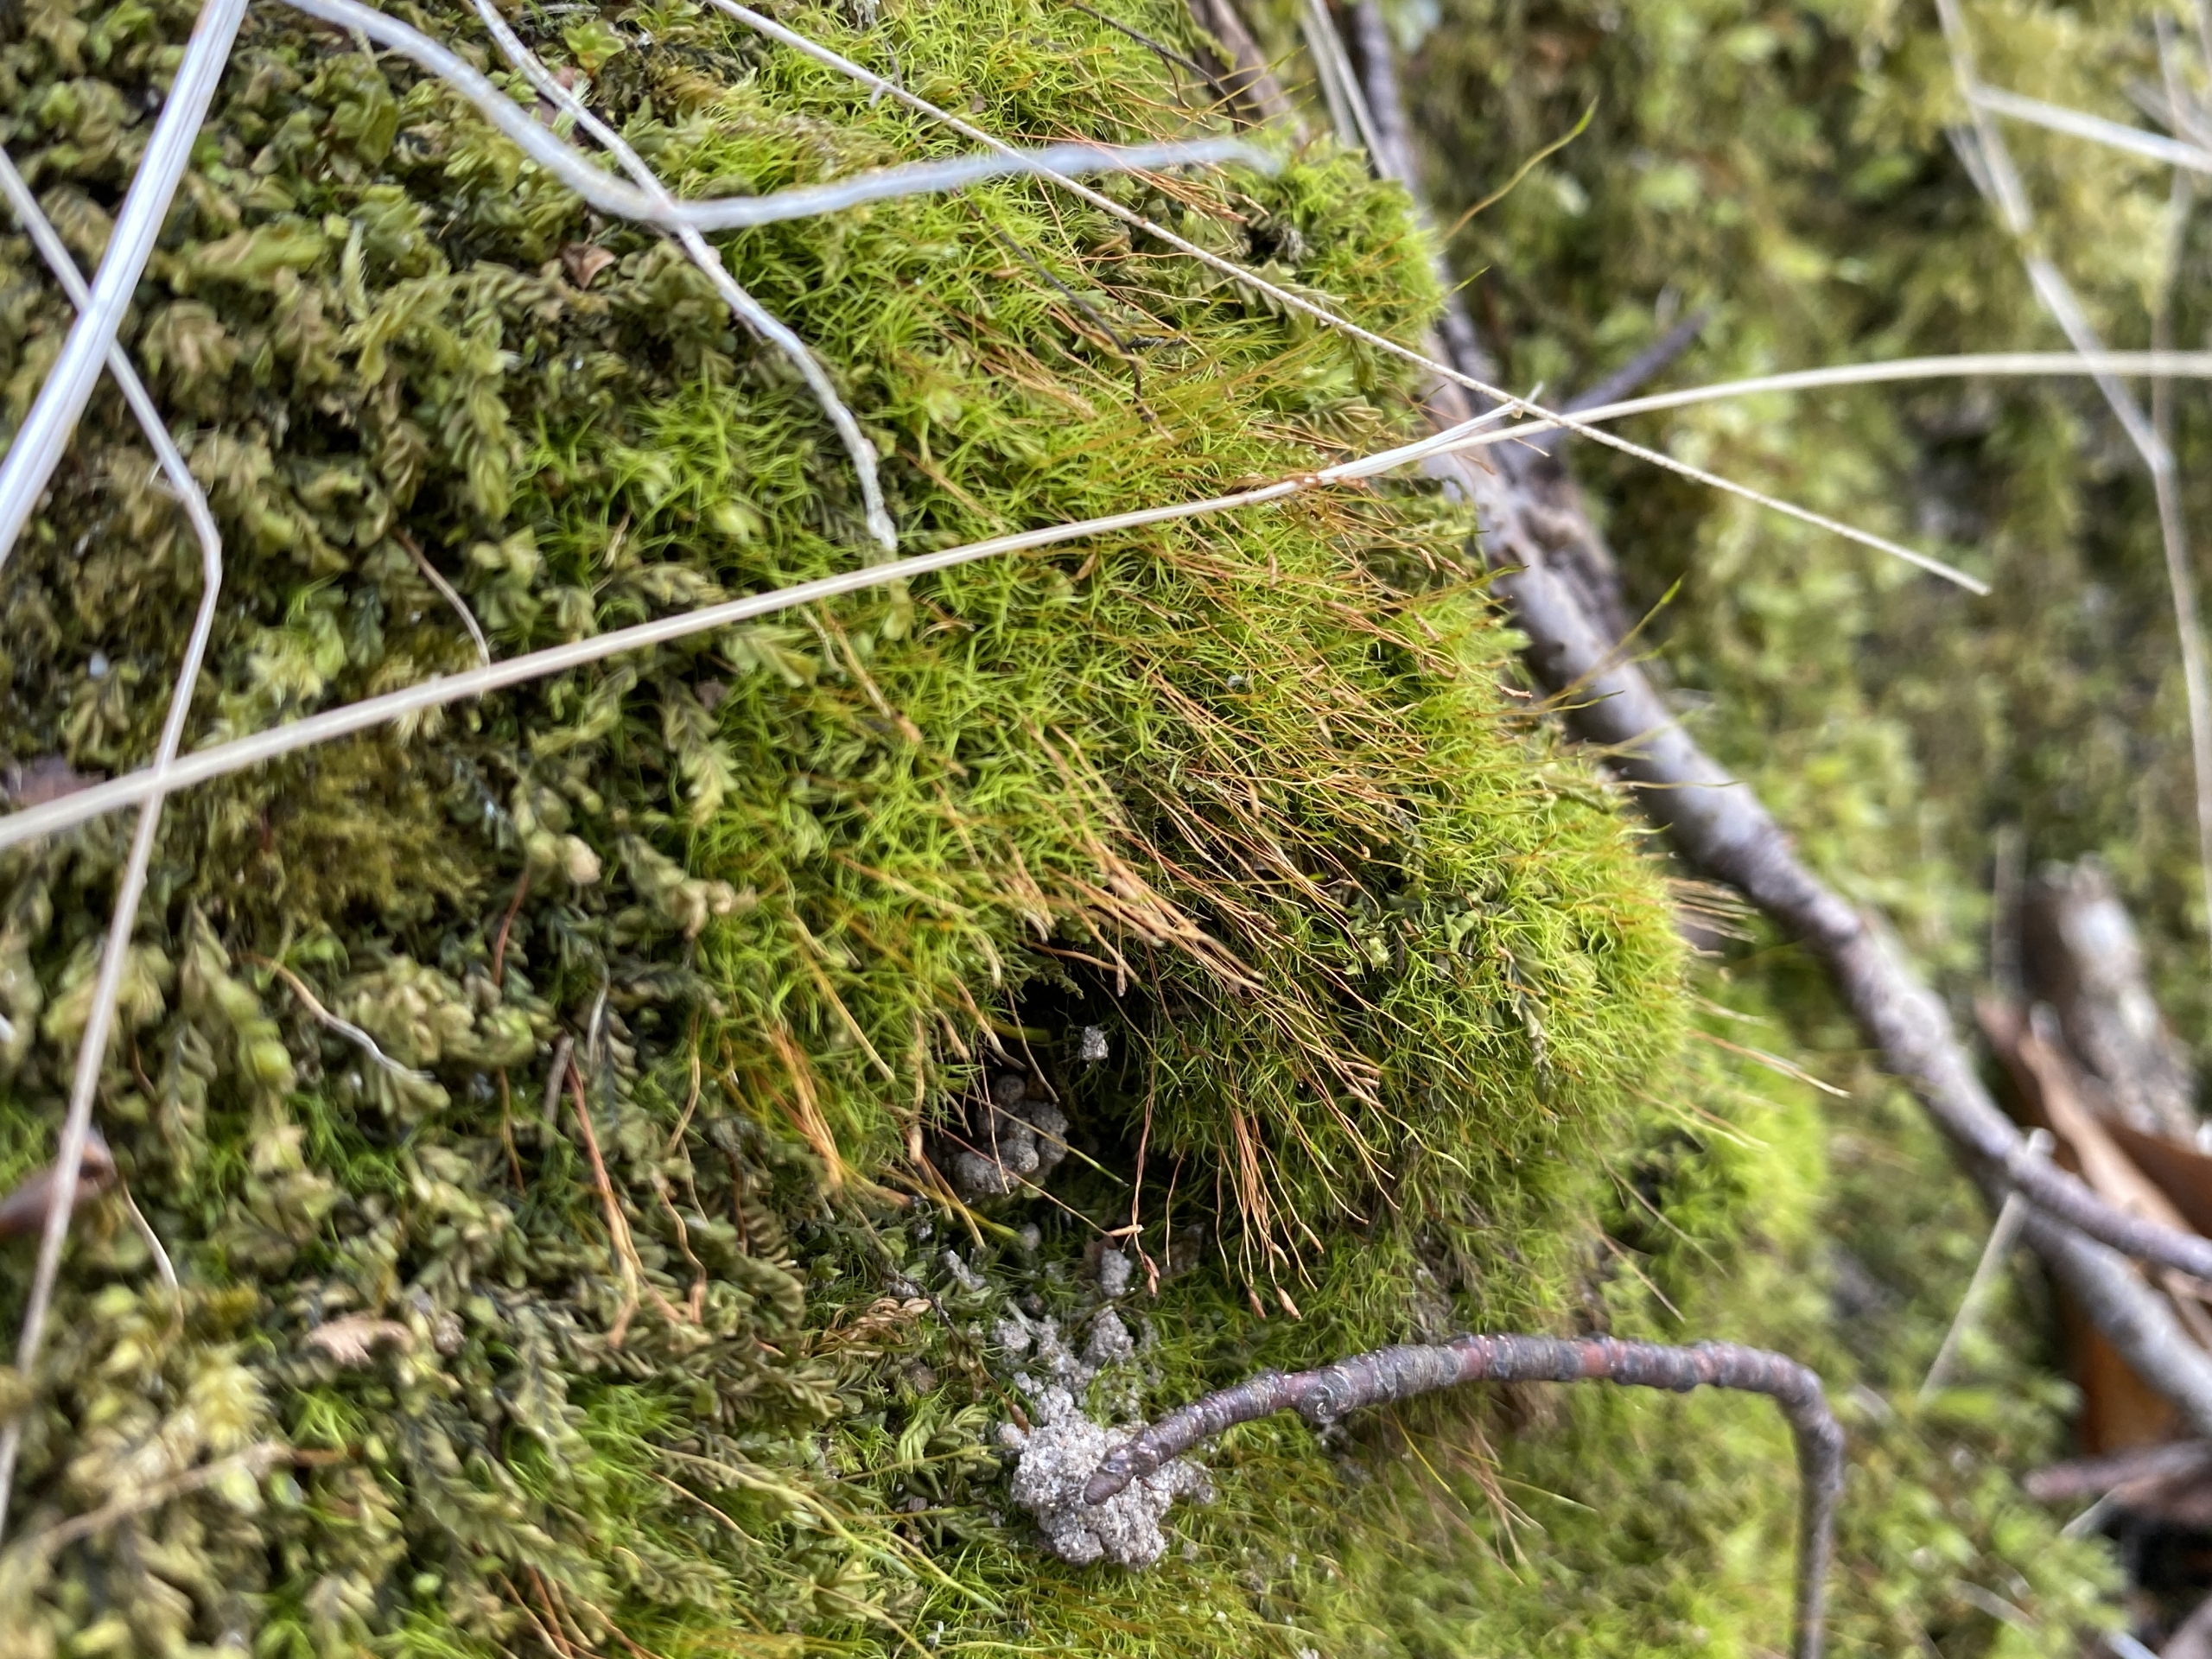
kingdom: Plantae
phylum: Bryophyta
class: Bryopsida
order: Scouleriales
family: Distichiaceae
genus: Distichium
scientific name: Distichium capillaceum
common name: Ret toradsmos
